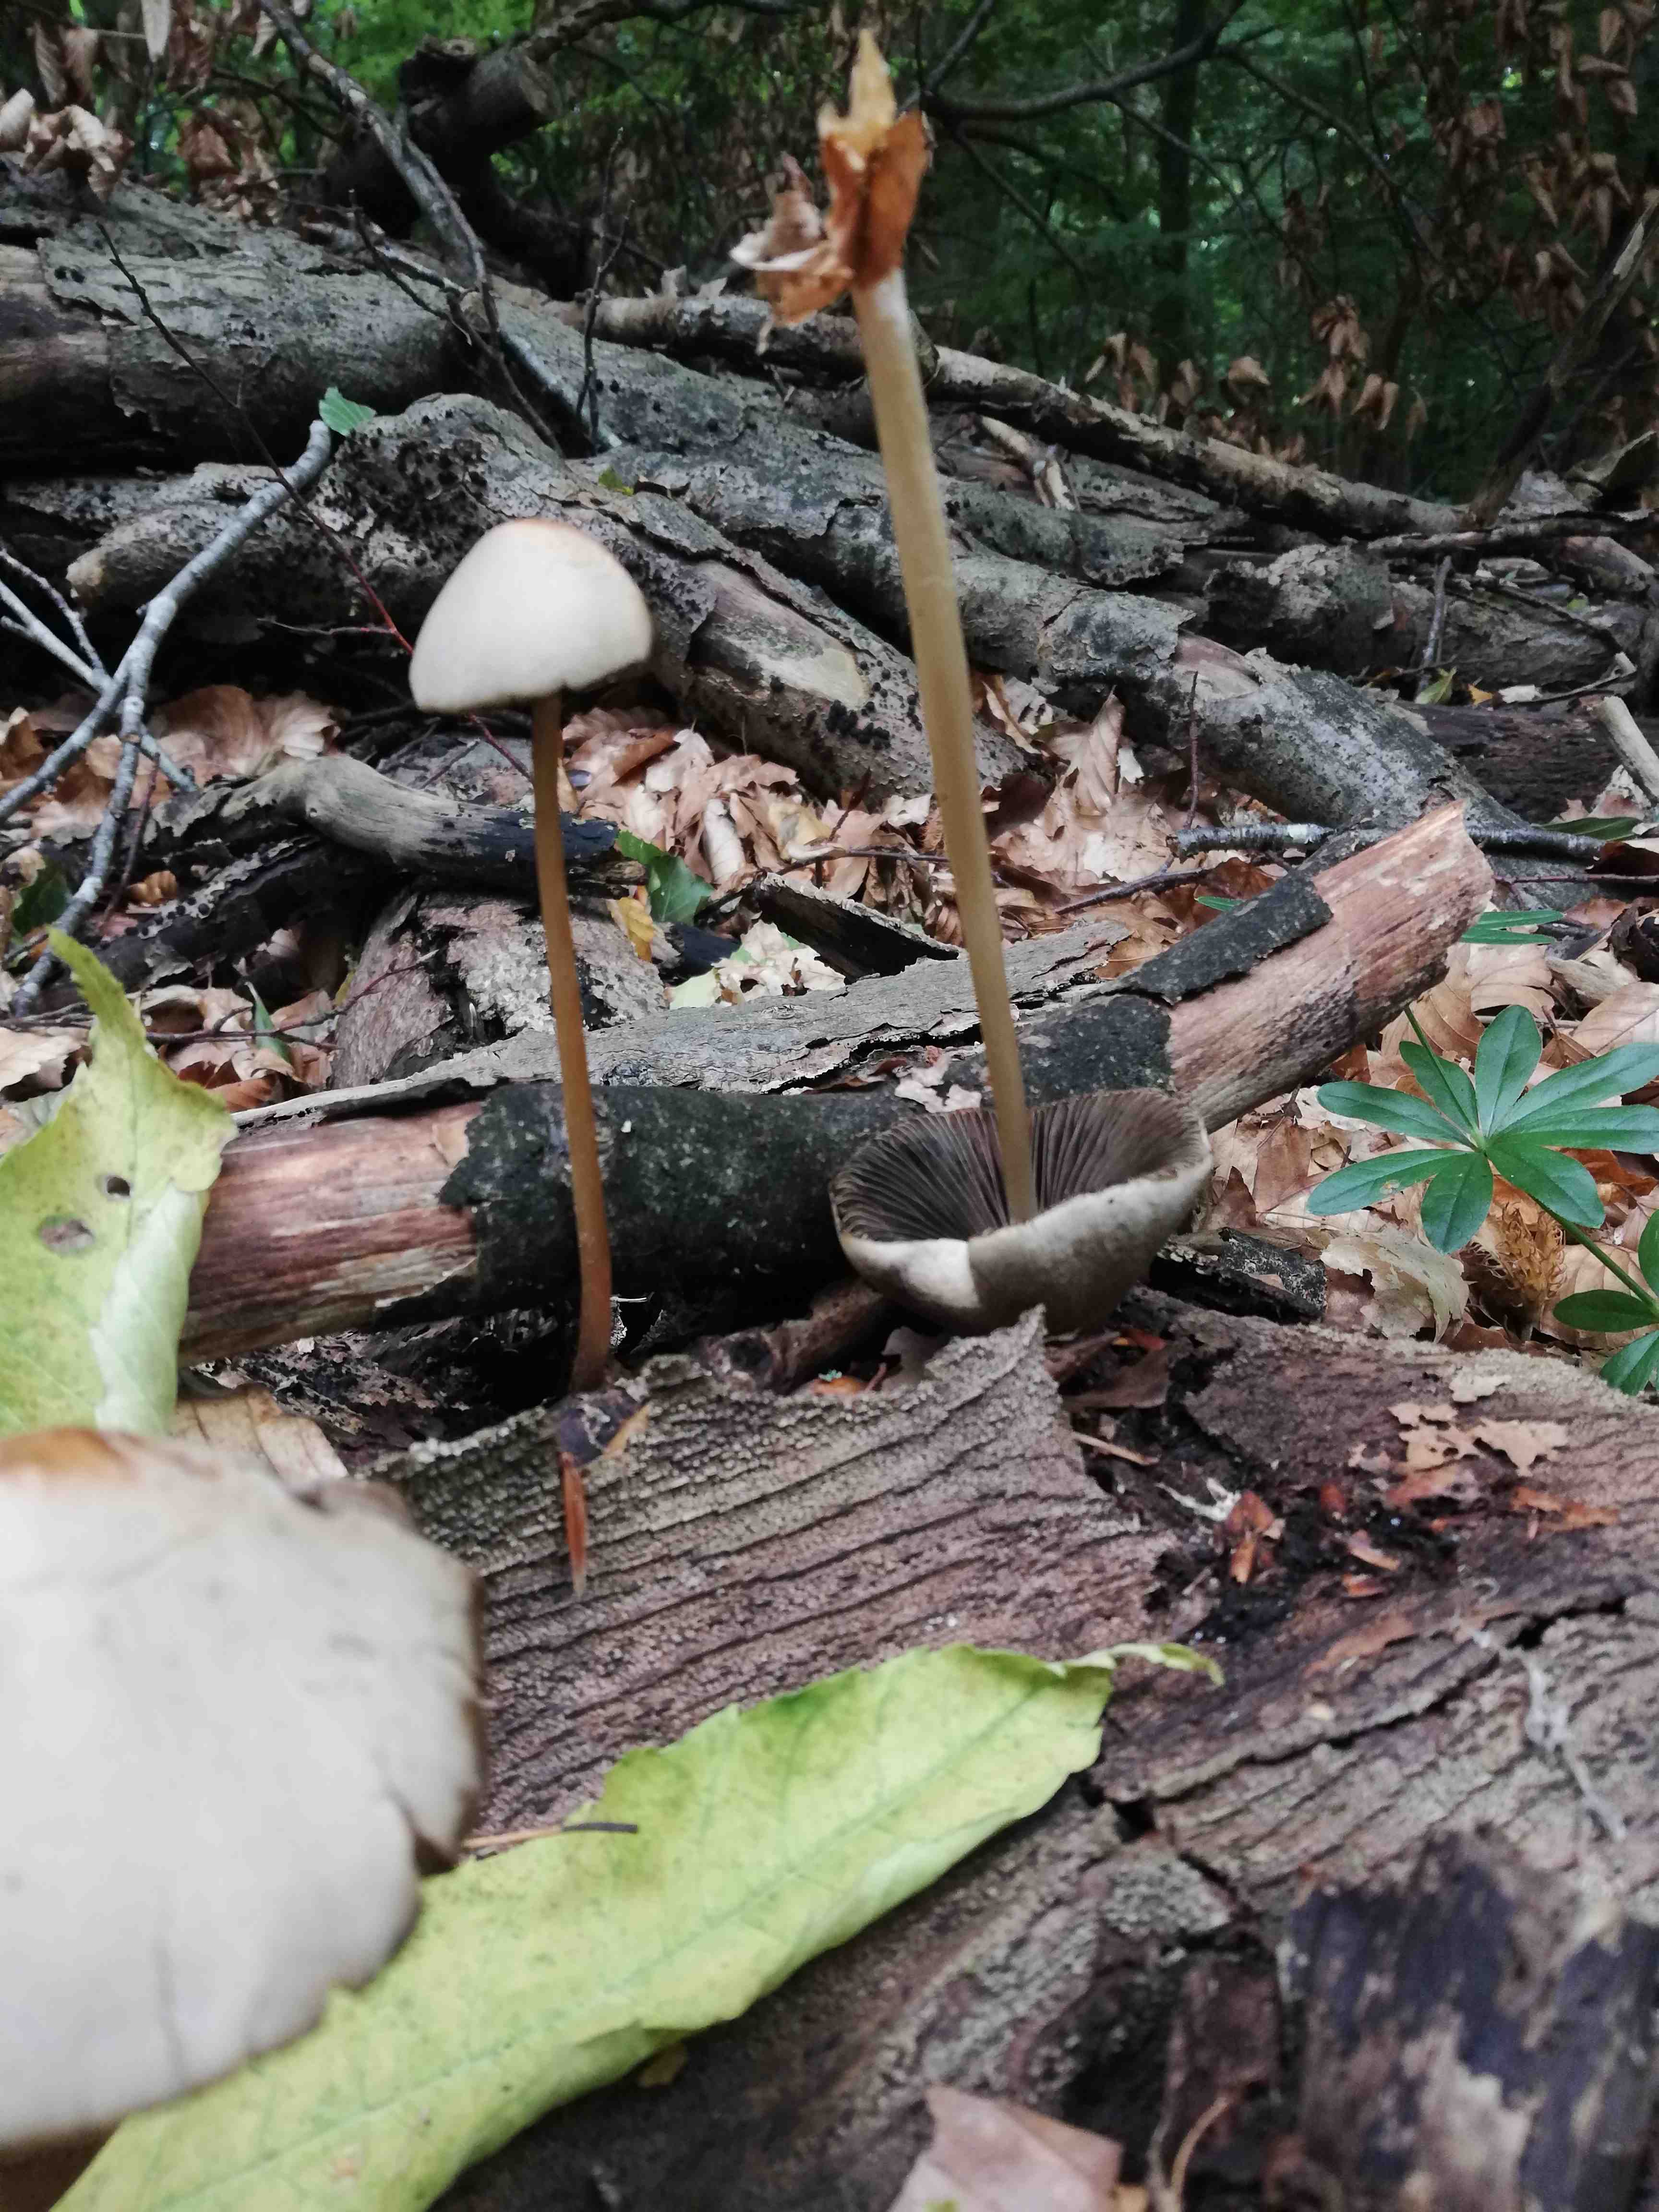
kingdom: Fungi
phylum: Basidiomycota
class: Agaricomycetes
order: Agaricales
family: Psathyrellaceae
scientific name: Psathyrellaceae
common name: mørkhatfamilien
